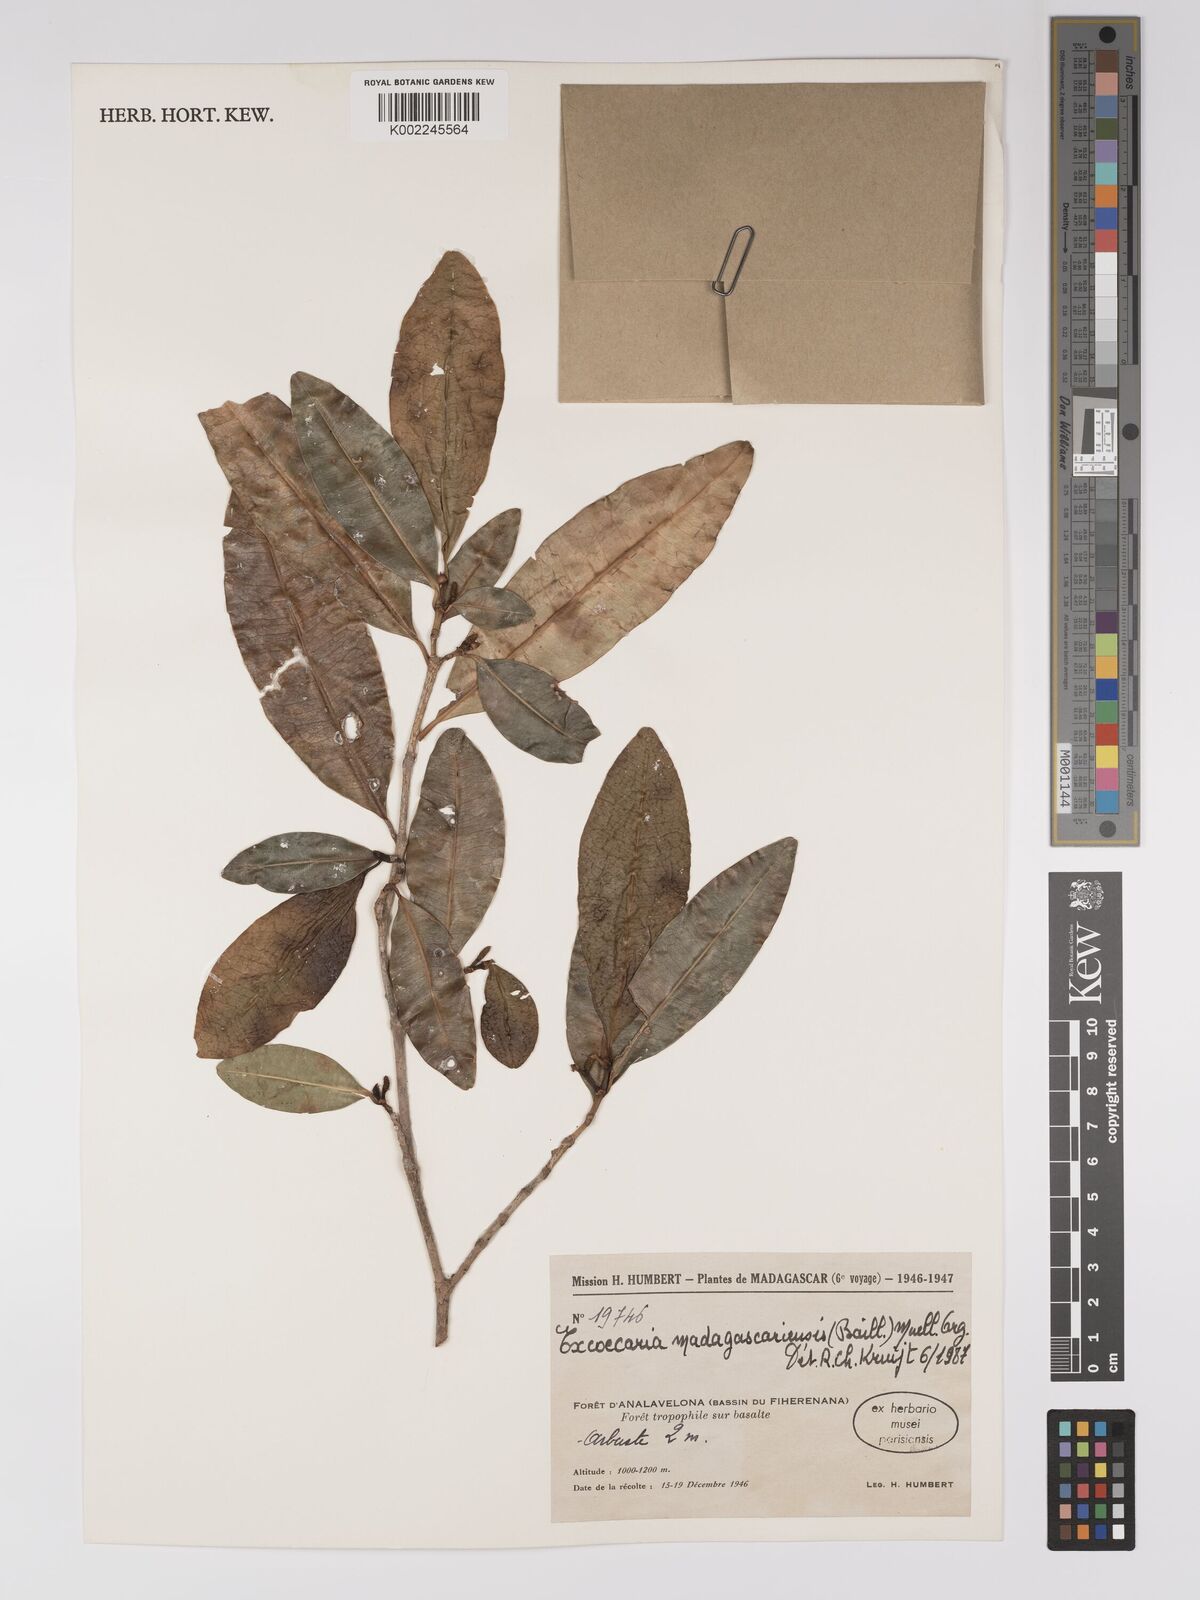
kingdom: Plantae
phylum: Tracheophyta
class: Magnoliopsida
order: Malpighiales
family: Euphorbiaceae
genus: Excoecaria
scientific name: Excoecaria madagascariensis
